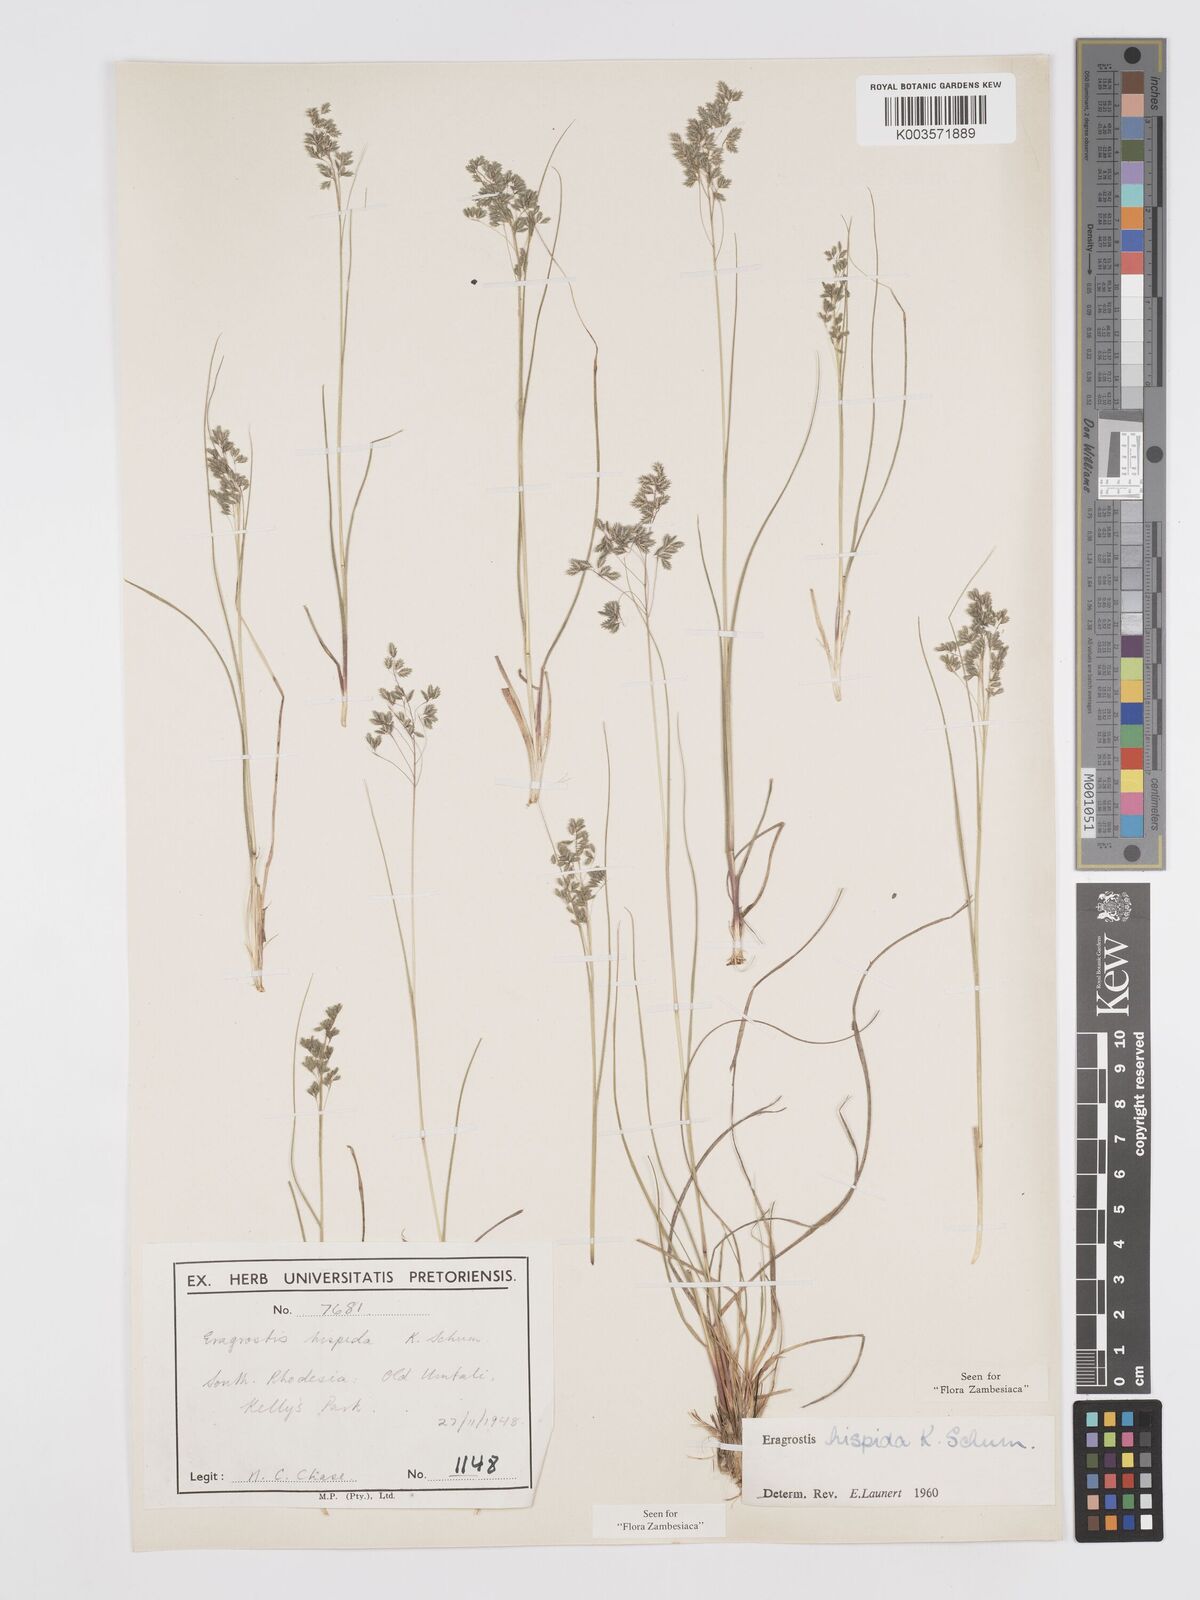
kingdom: Plantae
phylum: Tracheophyta
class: Liliopsida
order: Poales
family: Poaceae
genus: Eragrostis
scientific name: Eragrostis hispida
